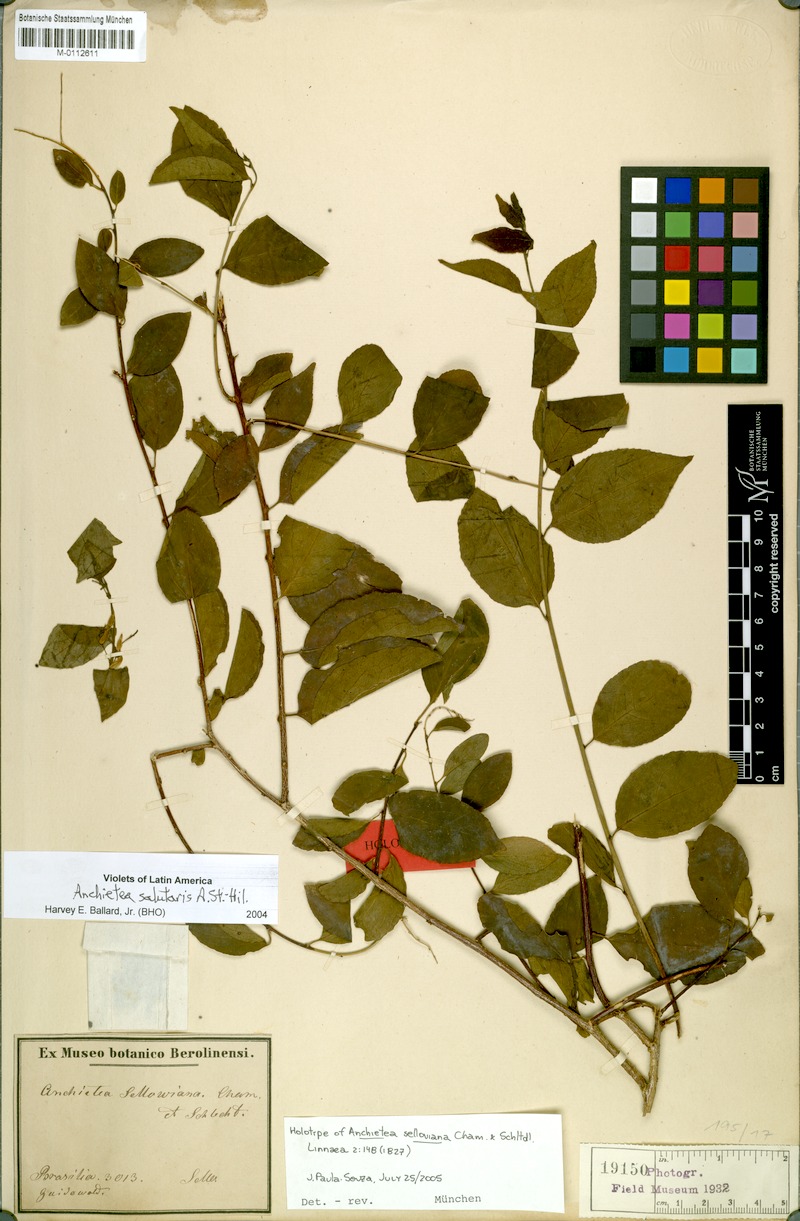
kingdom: Plantae
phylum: Tracheophyta
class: Magnoliopsida
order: Malpighiales
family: Violaceae
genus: Anchietea
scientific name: Anchietea pyrifolia
